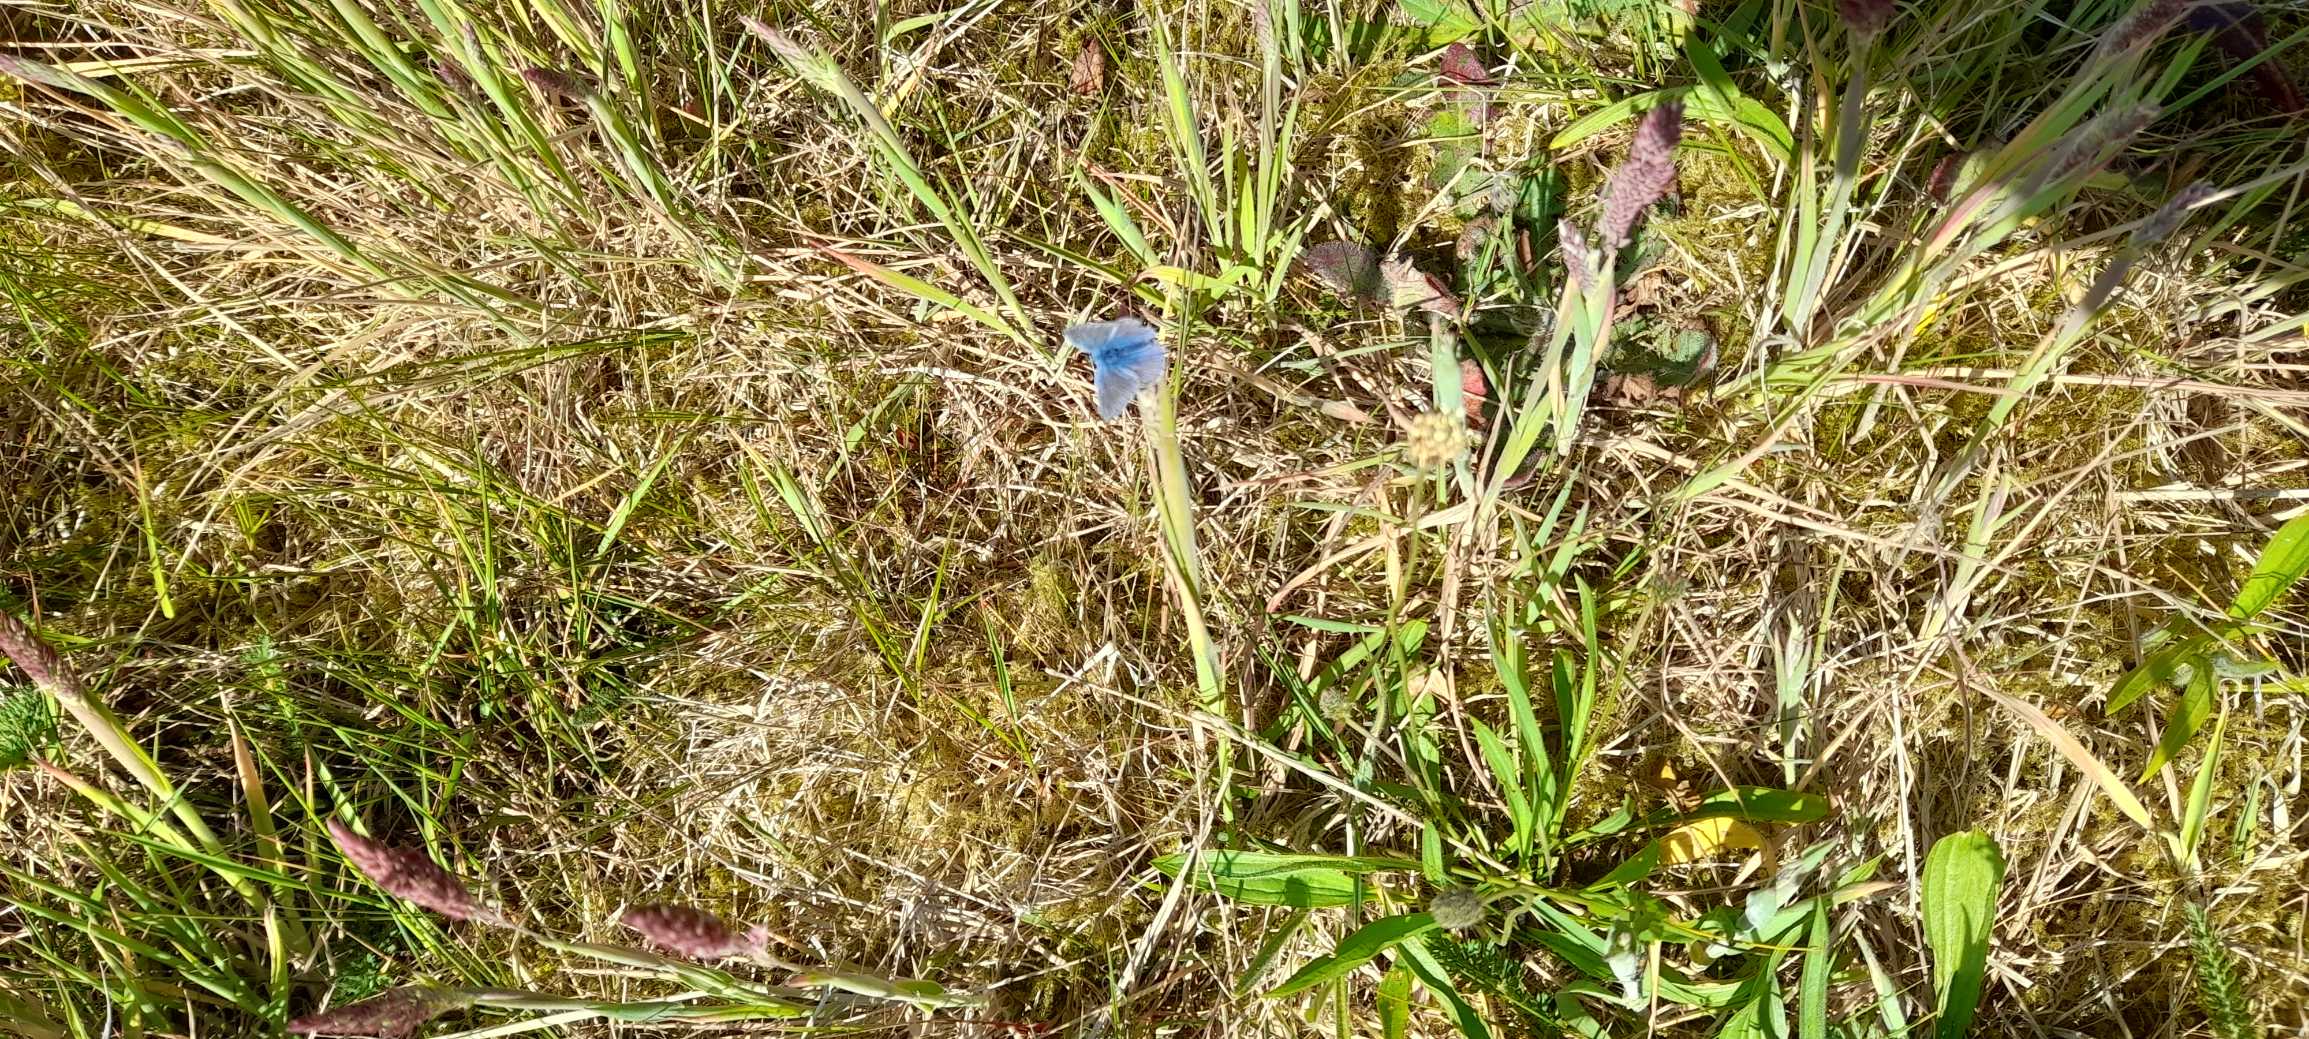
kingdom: Animalia
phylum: Arthropoda
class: Insecta
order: Lepidoptera
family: Lycaenidae
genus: Polyommatus
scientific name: Polyommatus icarus
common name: Almindelig blåfugl
